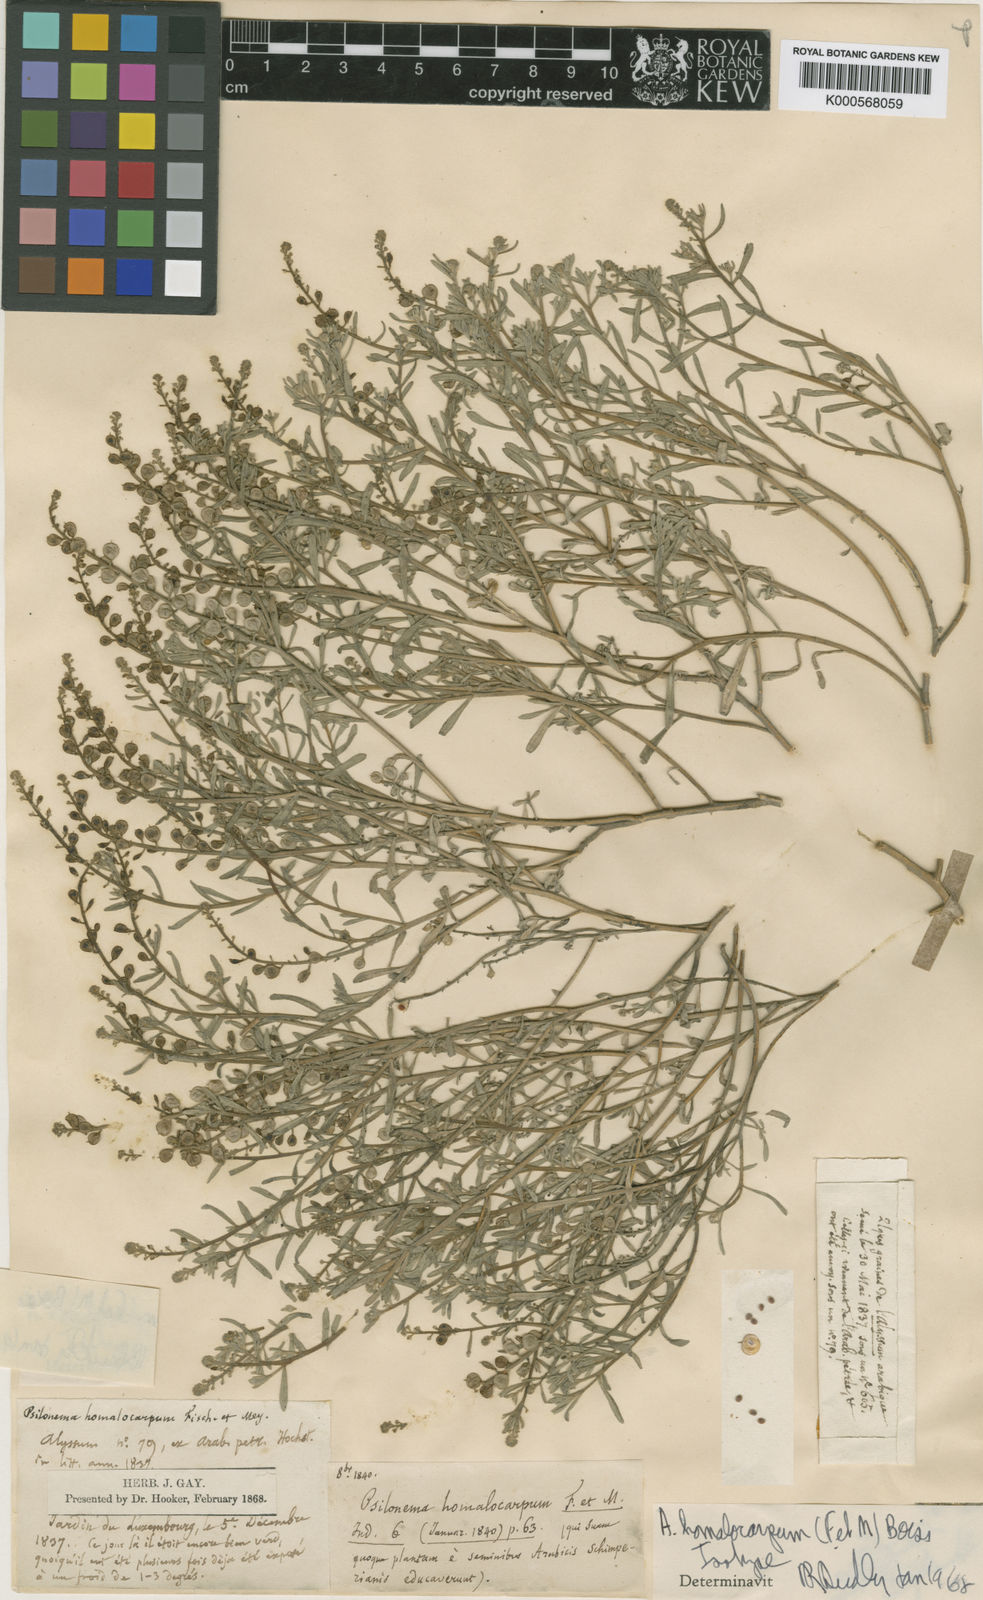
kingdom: Plantae
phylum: Tracheophyta
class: Magnoliopsida
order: Brassicales
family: Brassicaceae
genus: Cuprella
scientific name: Cuprella homalocarpa
